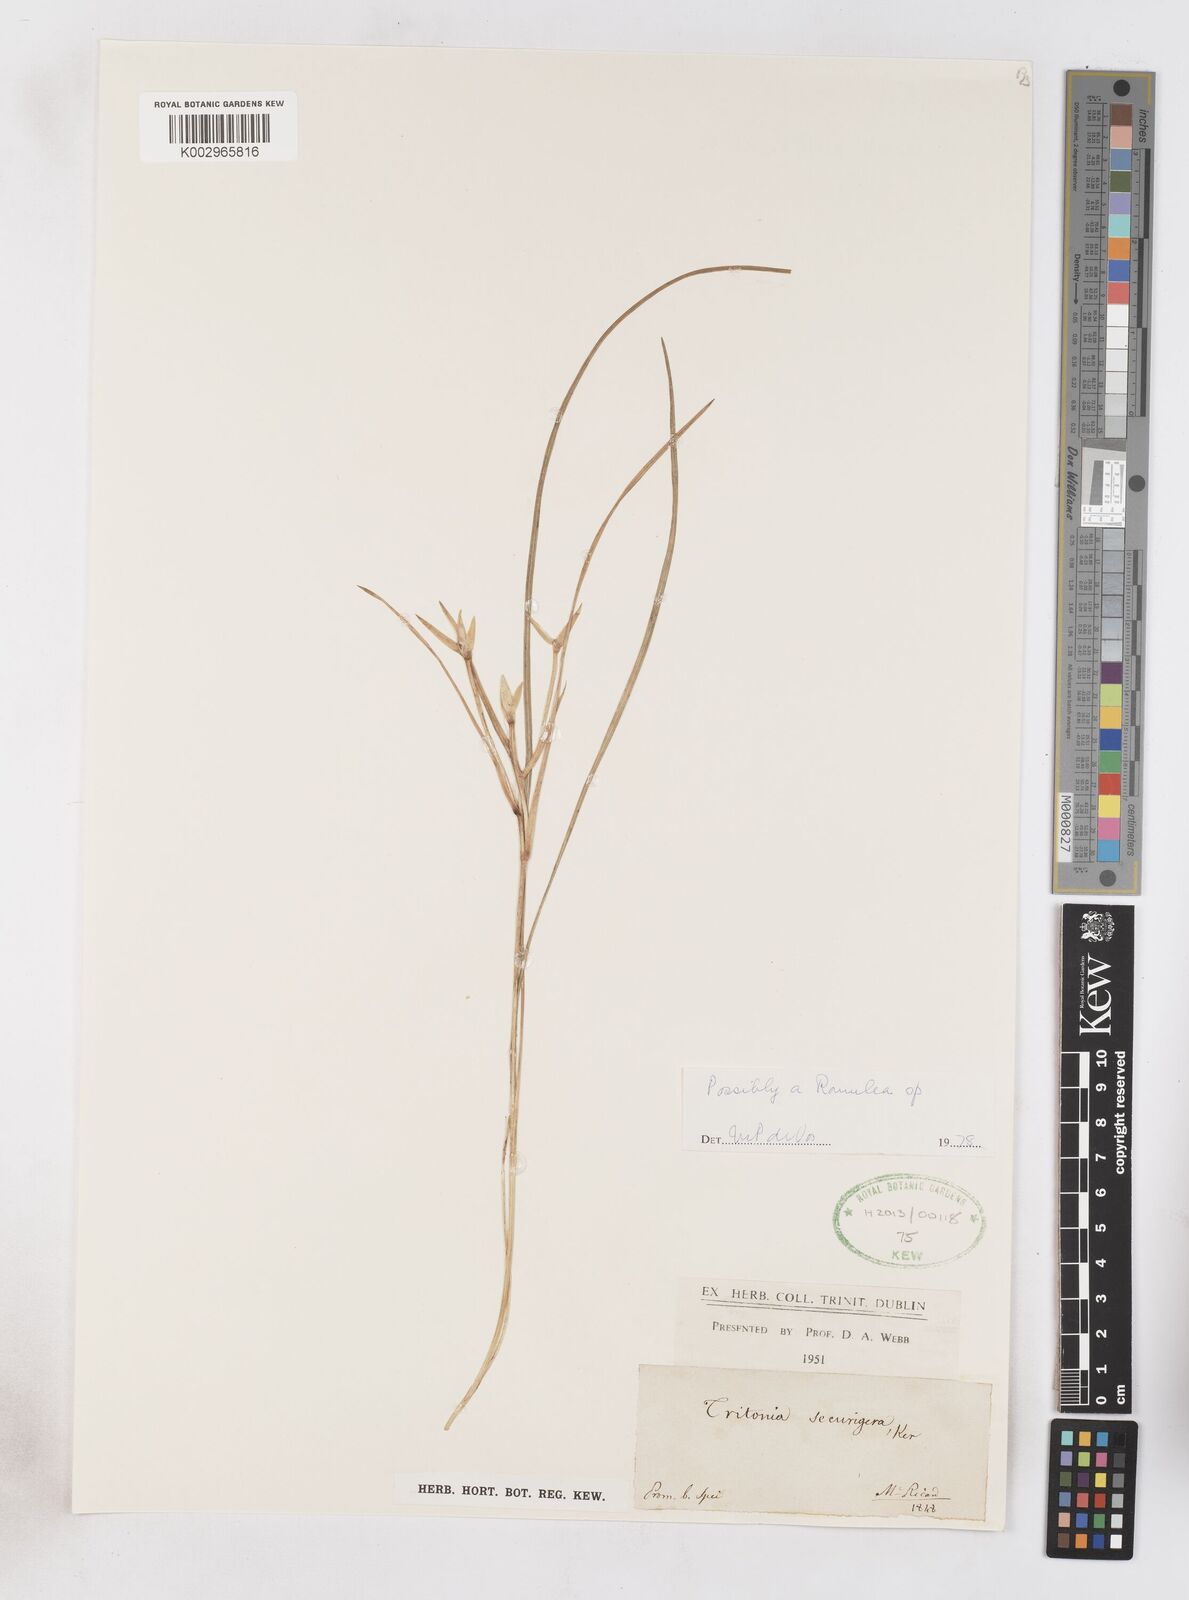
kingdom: Plantae
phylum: Tracheophyta
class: Liliopsida
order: Asparagales
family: Iridaceae
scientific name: Iridaceae
